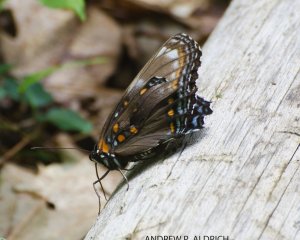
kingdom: Animalia
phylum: Arthropoda
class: Insecta
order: Lepidoptera
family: Nymphalidae
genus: Limenitis
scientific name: Limenitis astyanax
